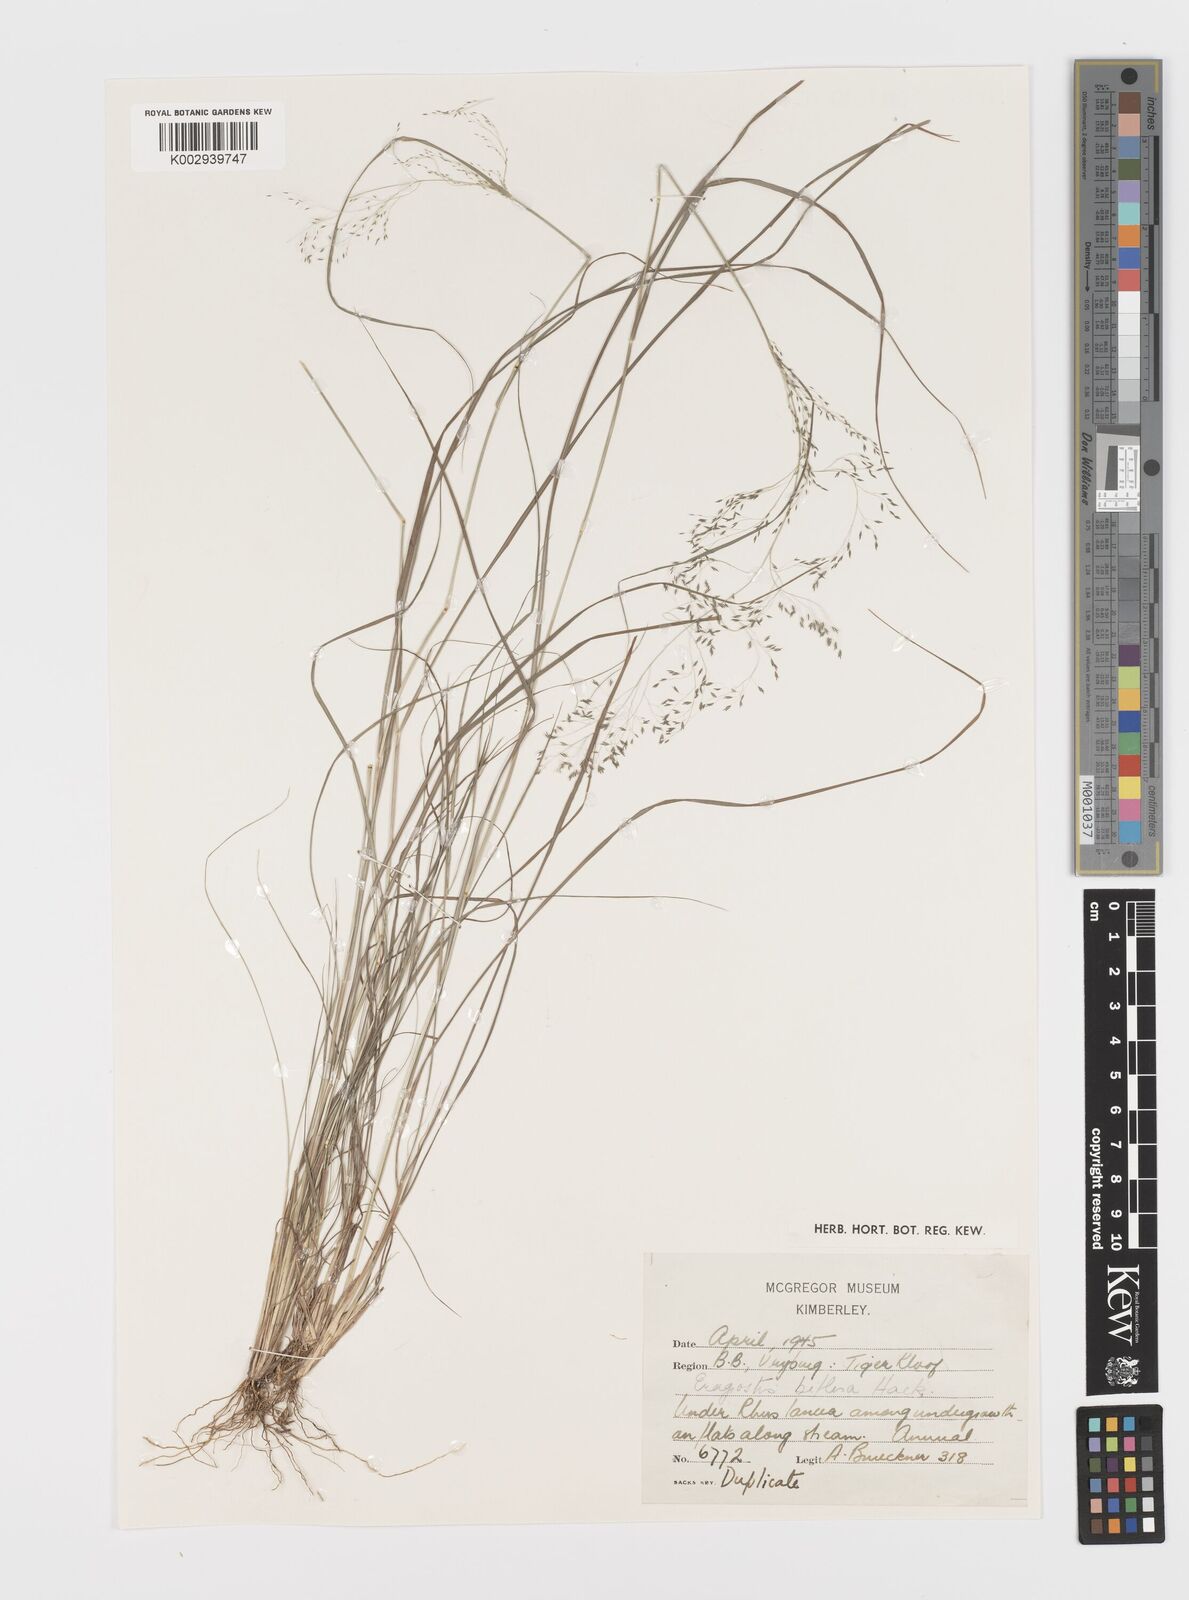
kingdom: Plantae
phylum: Tracheophyta
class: Liliopsida
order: Poales
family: Poaceae
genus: Eragrostis
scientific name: Eragrostis biflora
